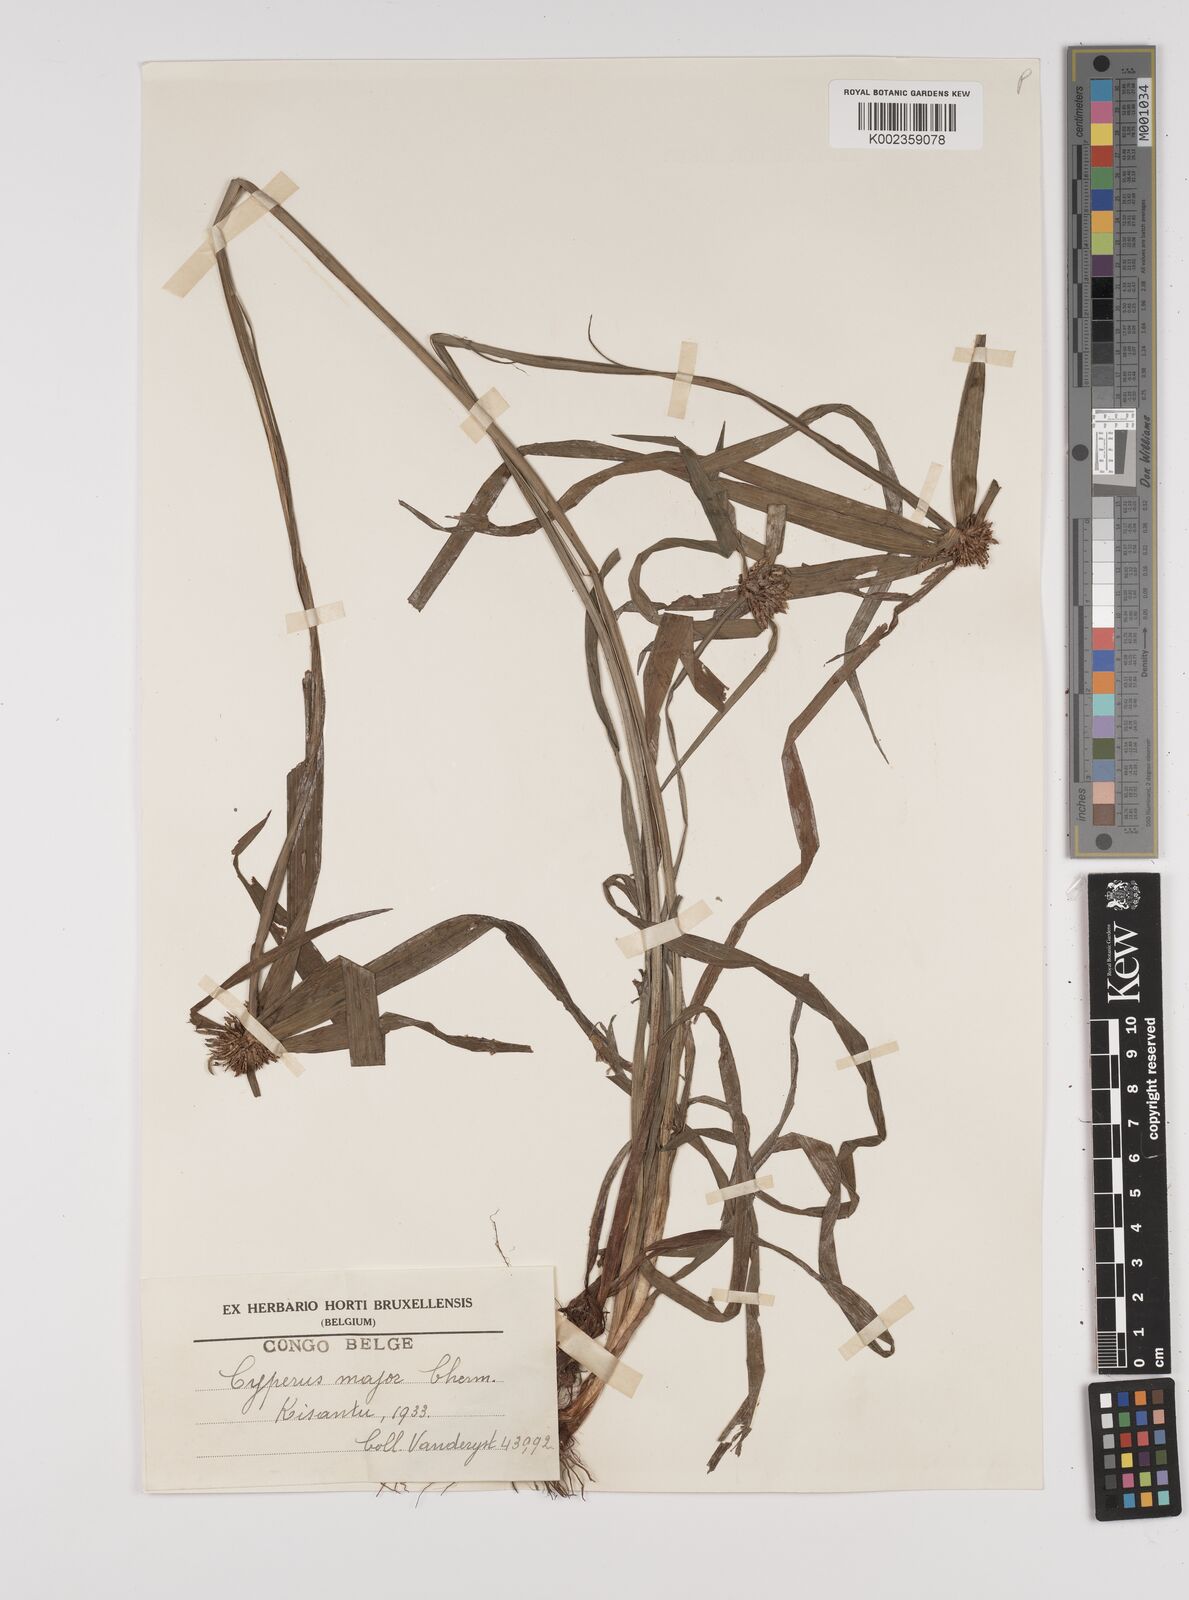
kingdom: Plantae
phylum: Tracheophyta
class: Liliopsida
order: Poales
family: Cyperaceae
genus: Cyperus
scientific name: Cyperus mapanioides
